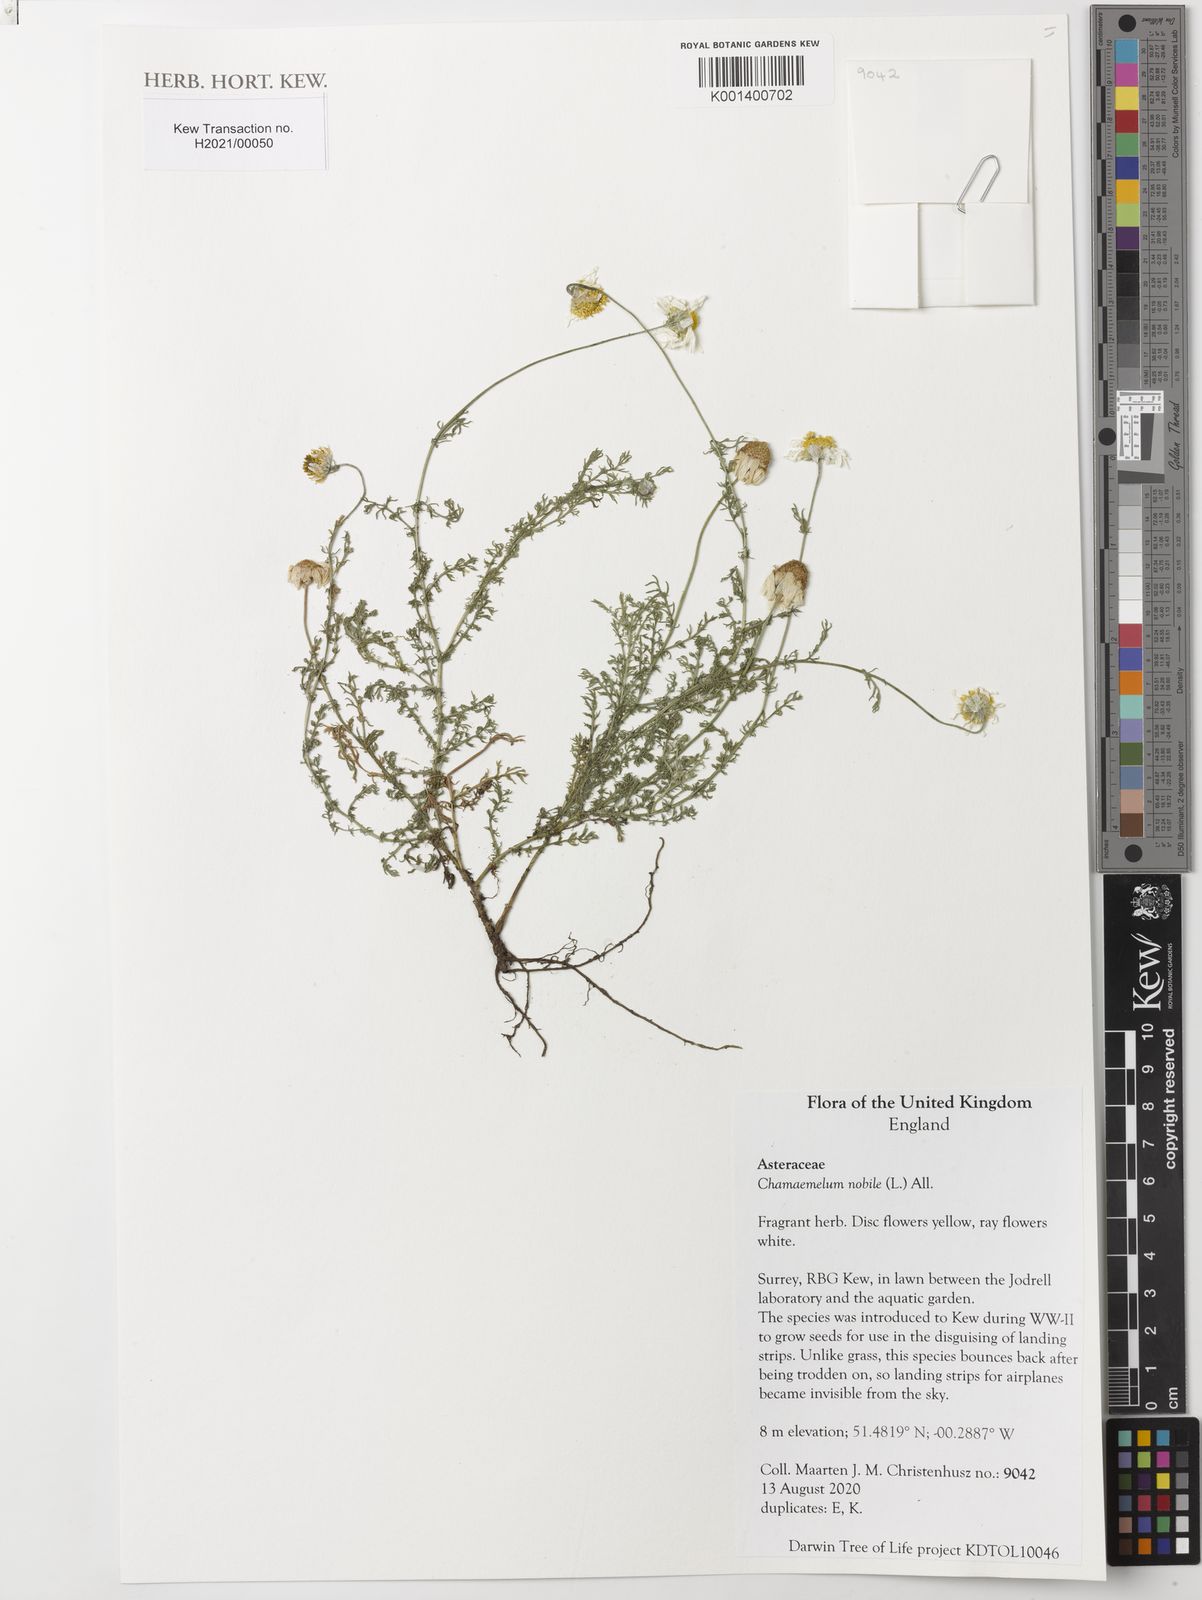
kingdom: Plantae
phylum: Tracheophyta
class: Magnoliopsida
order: Asterales
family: Asteraceae
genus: Chamaemelum
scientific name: Chamaemelum nobile
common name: Roman chamomile
